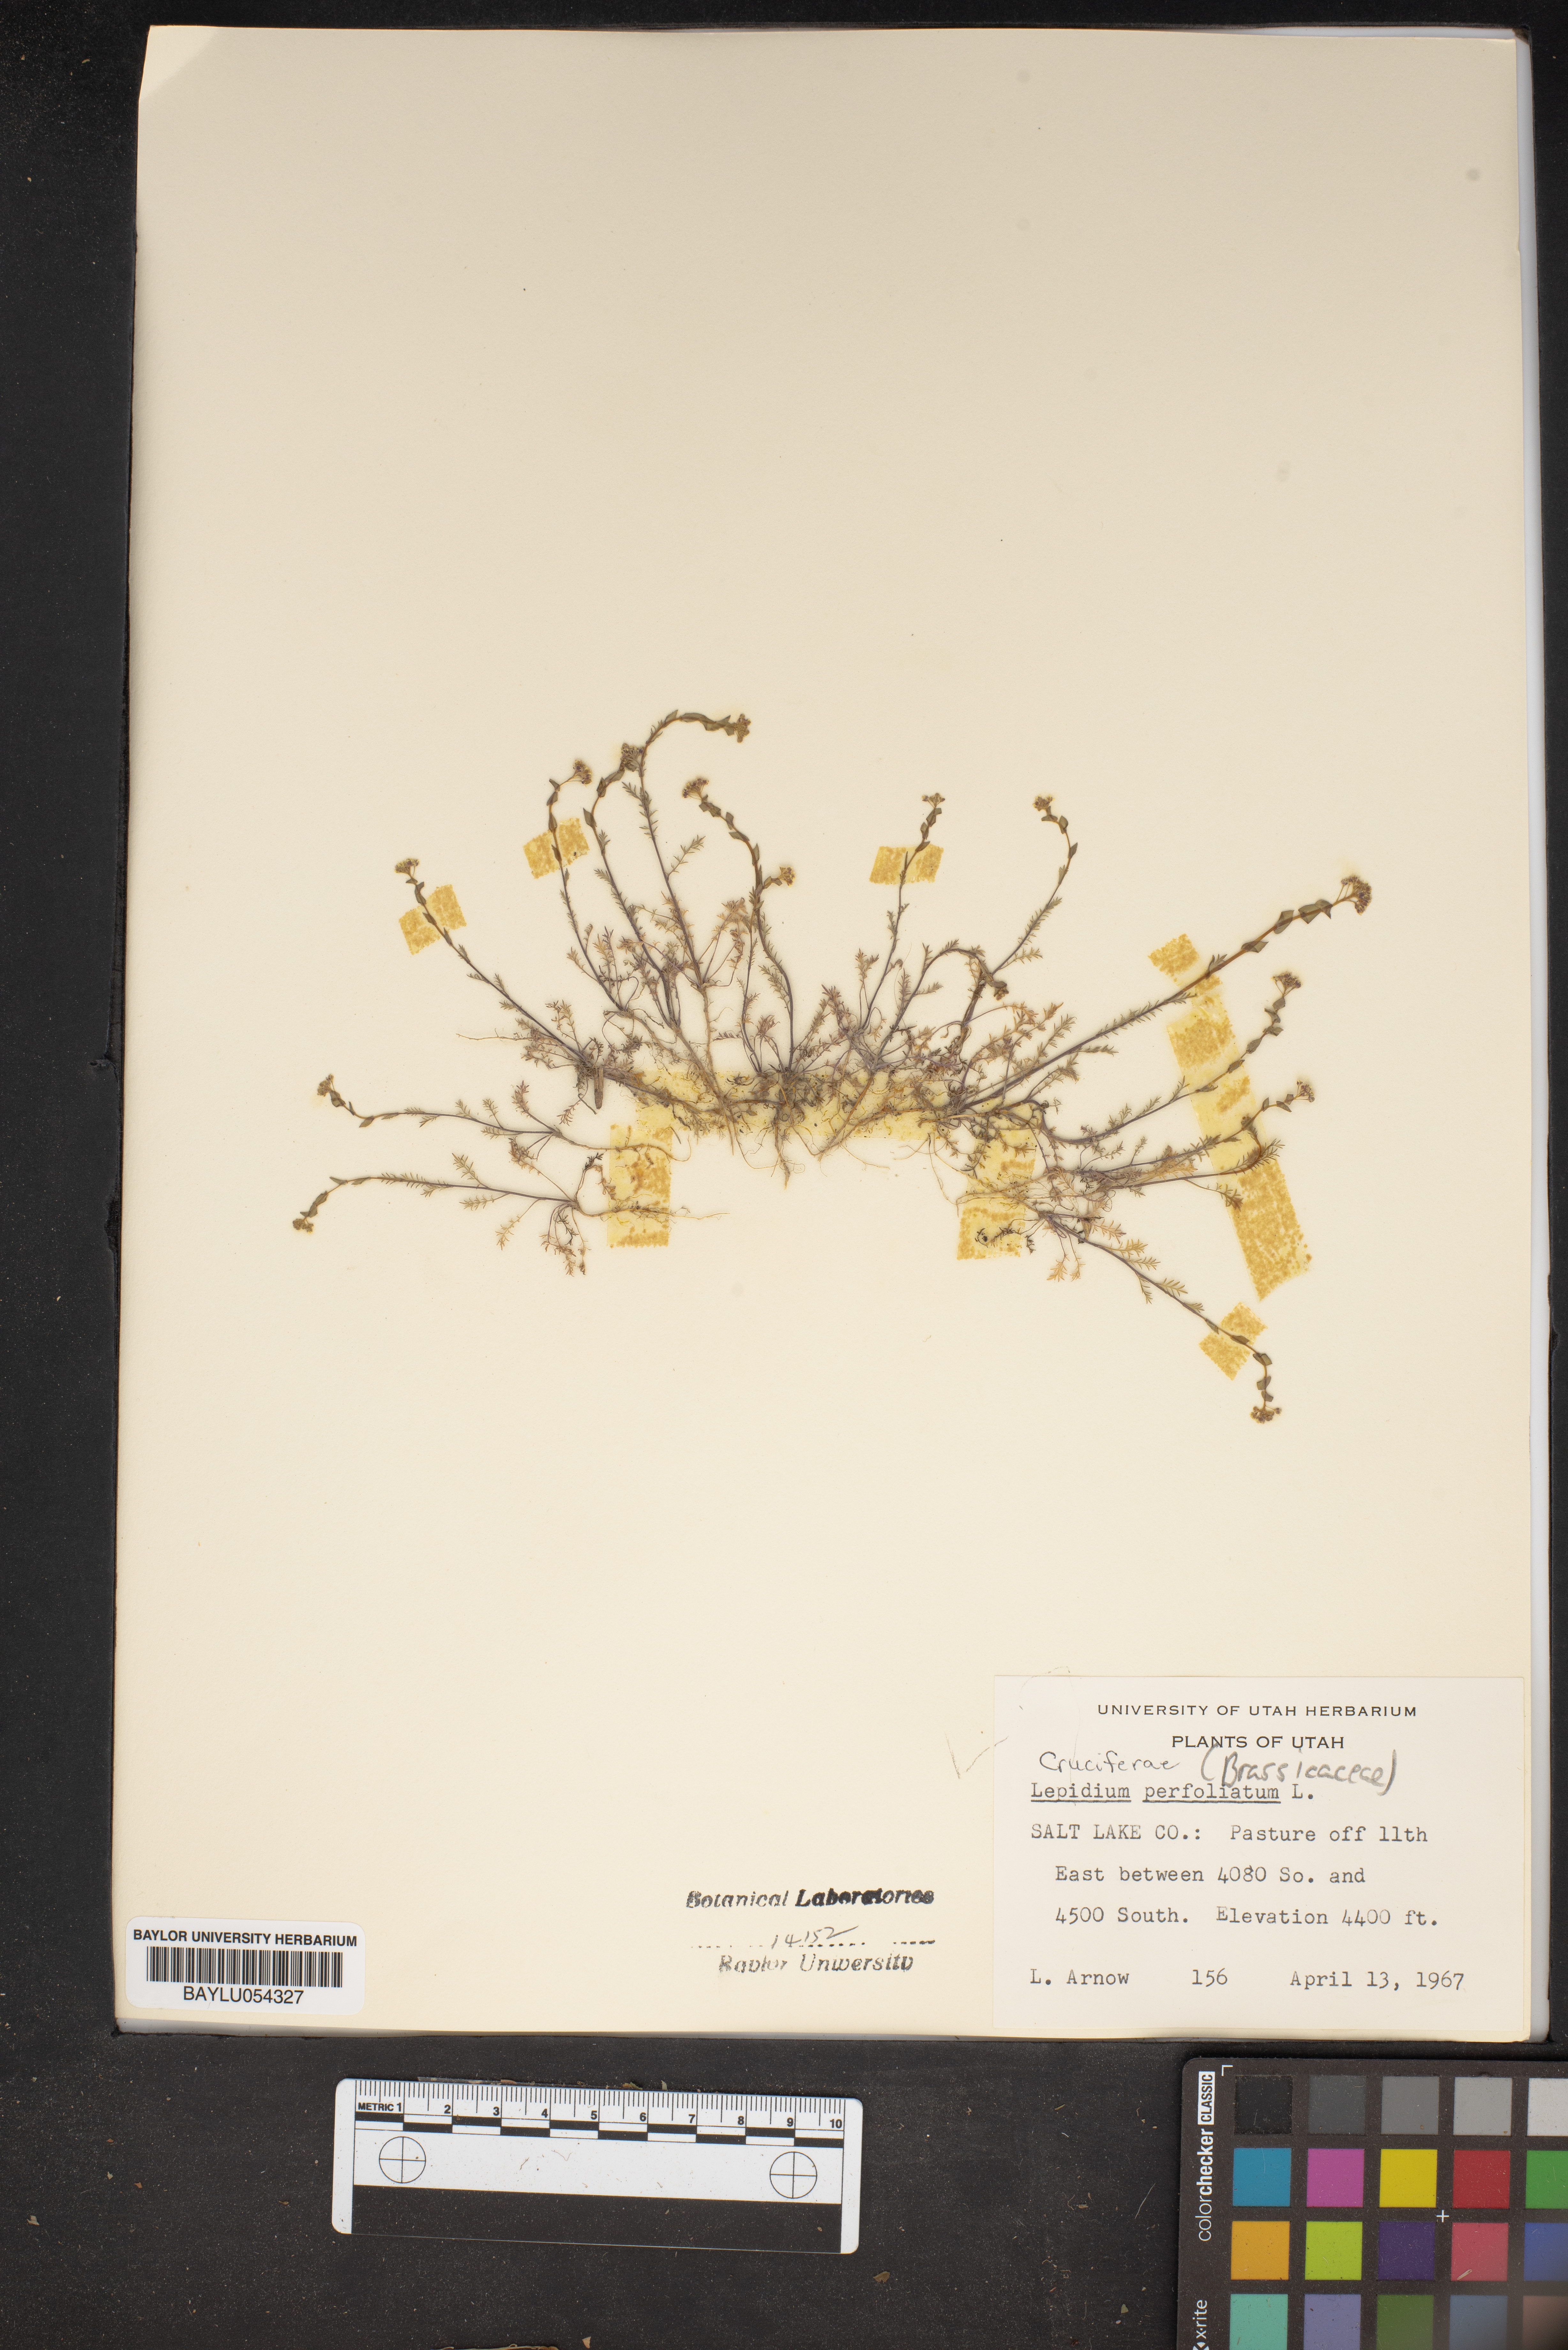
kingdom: Plantae
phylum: Tracheophyta
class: Magnoliopsida
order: Brassicales
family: Brassicaceae
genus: Lepidium
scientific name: Lepidium perfoliatum
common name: Perfoliate pepperwort
